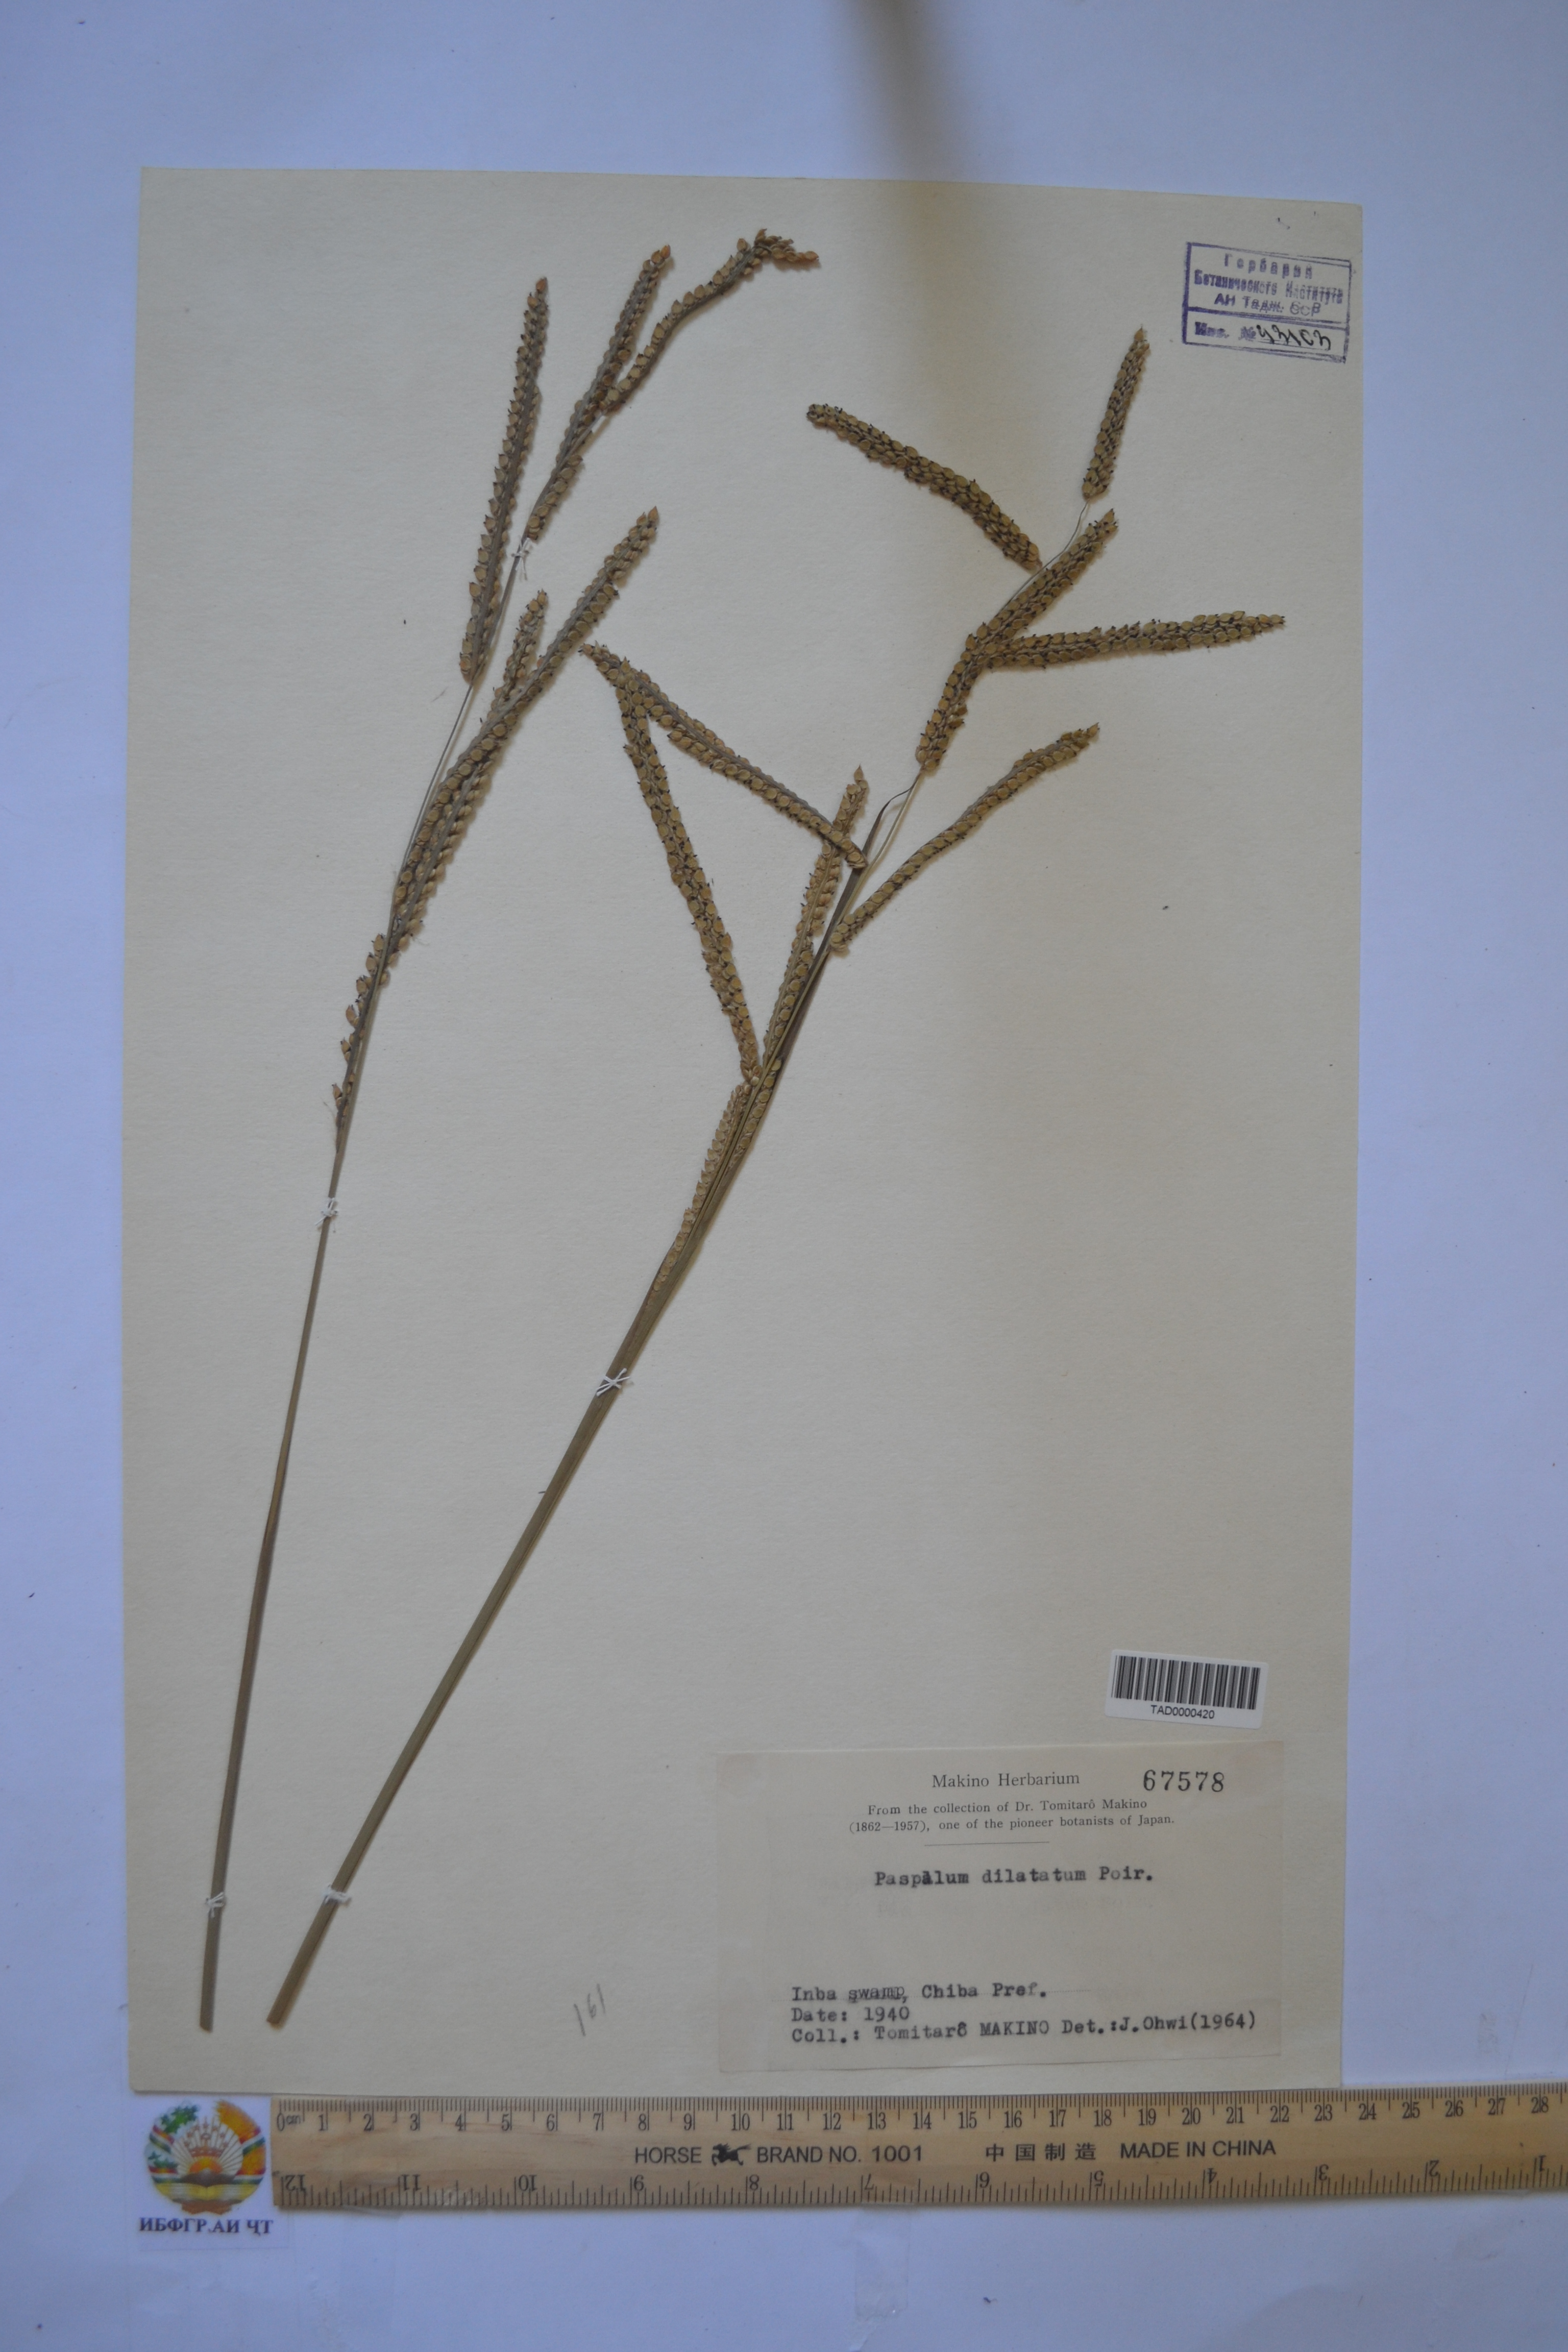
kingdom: Plantae
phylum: Tracheophyta
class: Liliopsida
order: Poales
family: Poaceae
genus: Paspalum
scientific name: Paspalum dilatatum
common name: Dallisgrass
